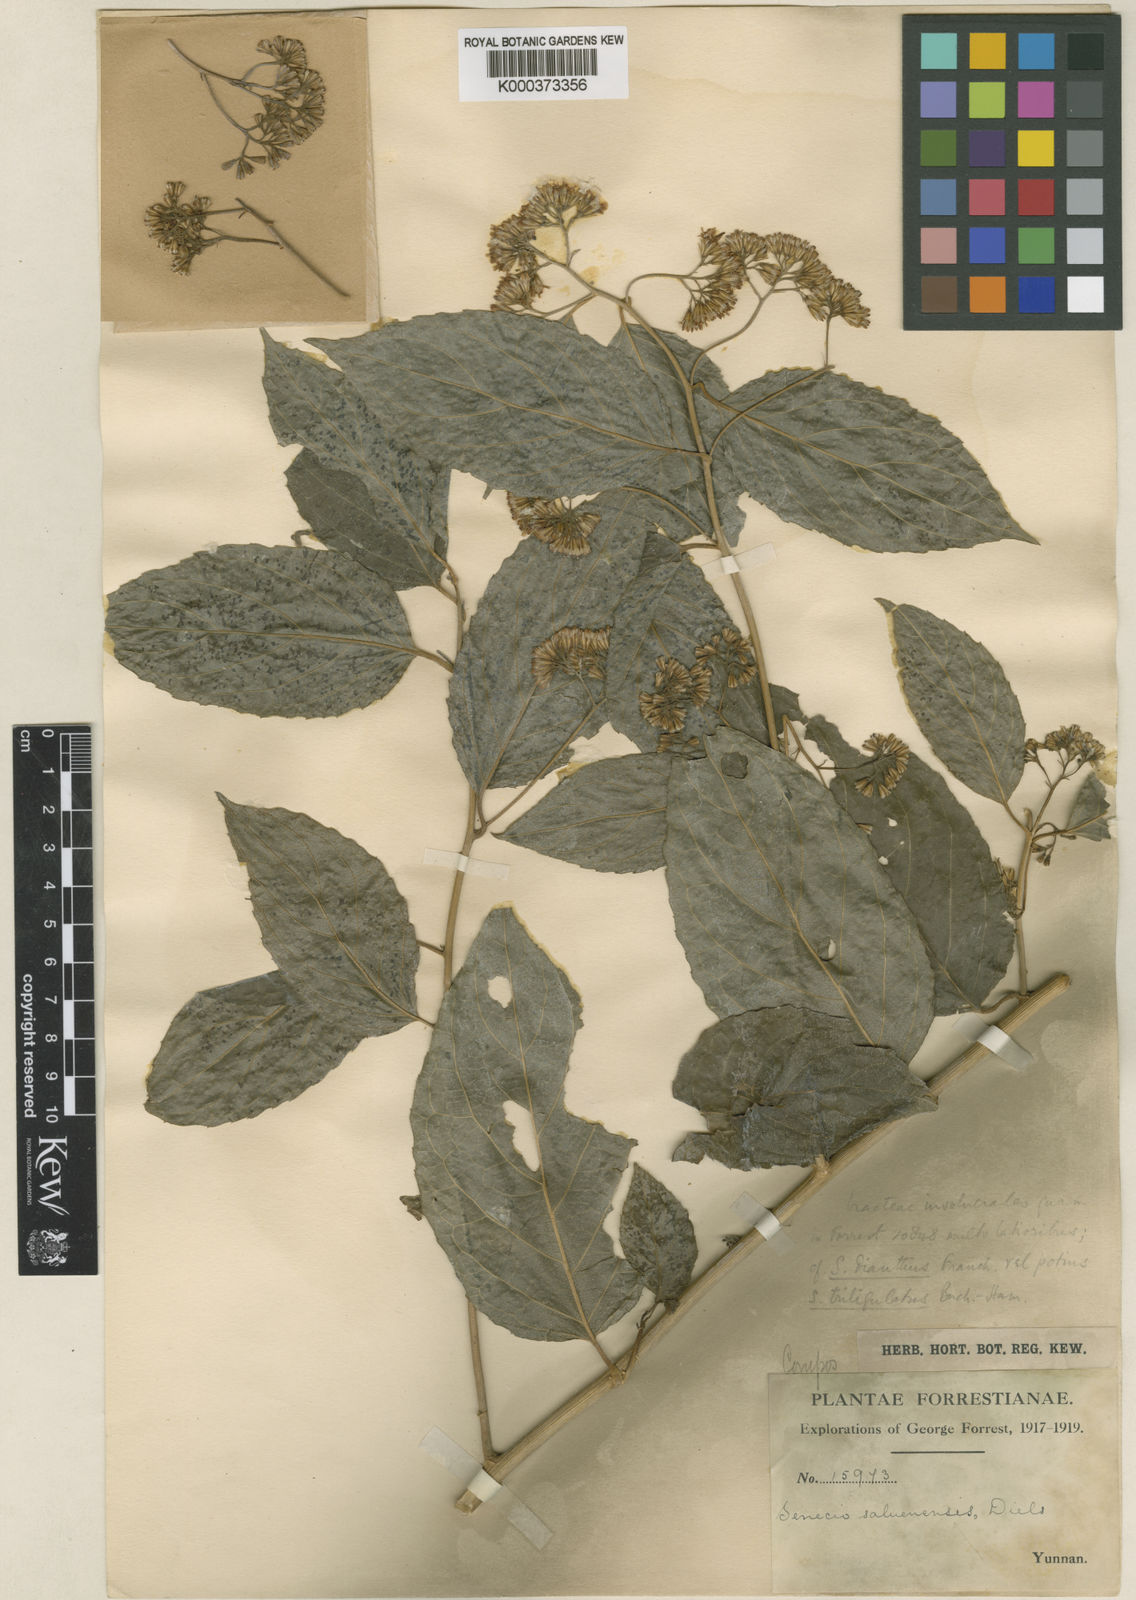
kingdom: Plantae
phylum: Tracheophyta
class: Magnoliopsida
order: Asterales
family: Asteraceae
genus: Synotis
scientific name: Synotis triligulata
